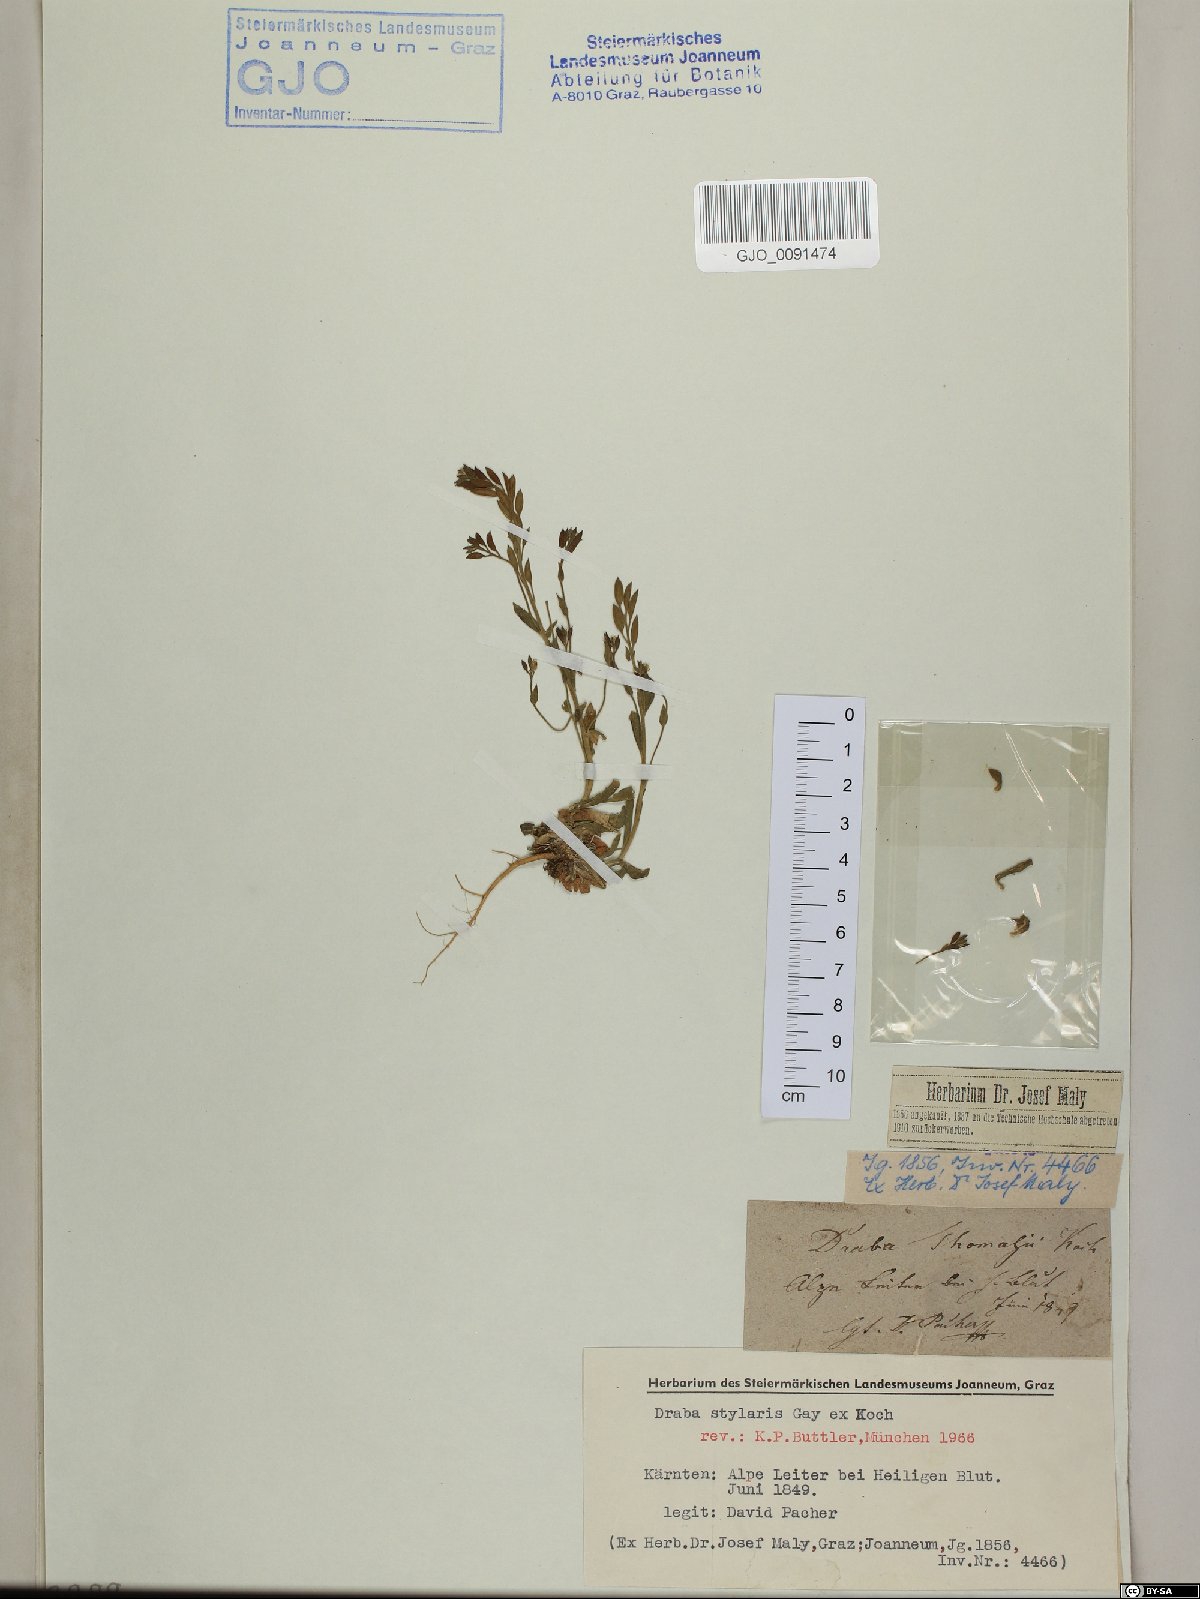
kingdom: Plantae
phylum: Tracheophyta
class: Magnoliopsida
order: Brassicales
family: Brassicaceae
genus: Draba
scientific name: Draba thomasii
